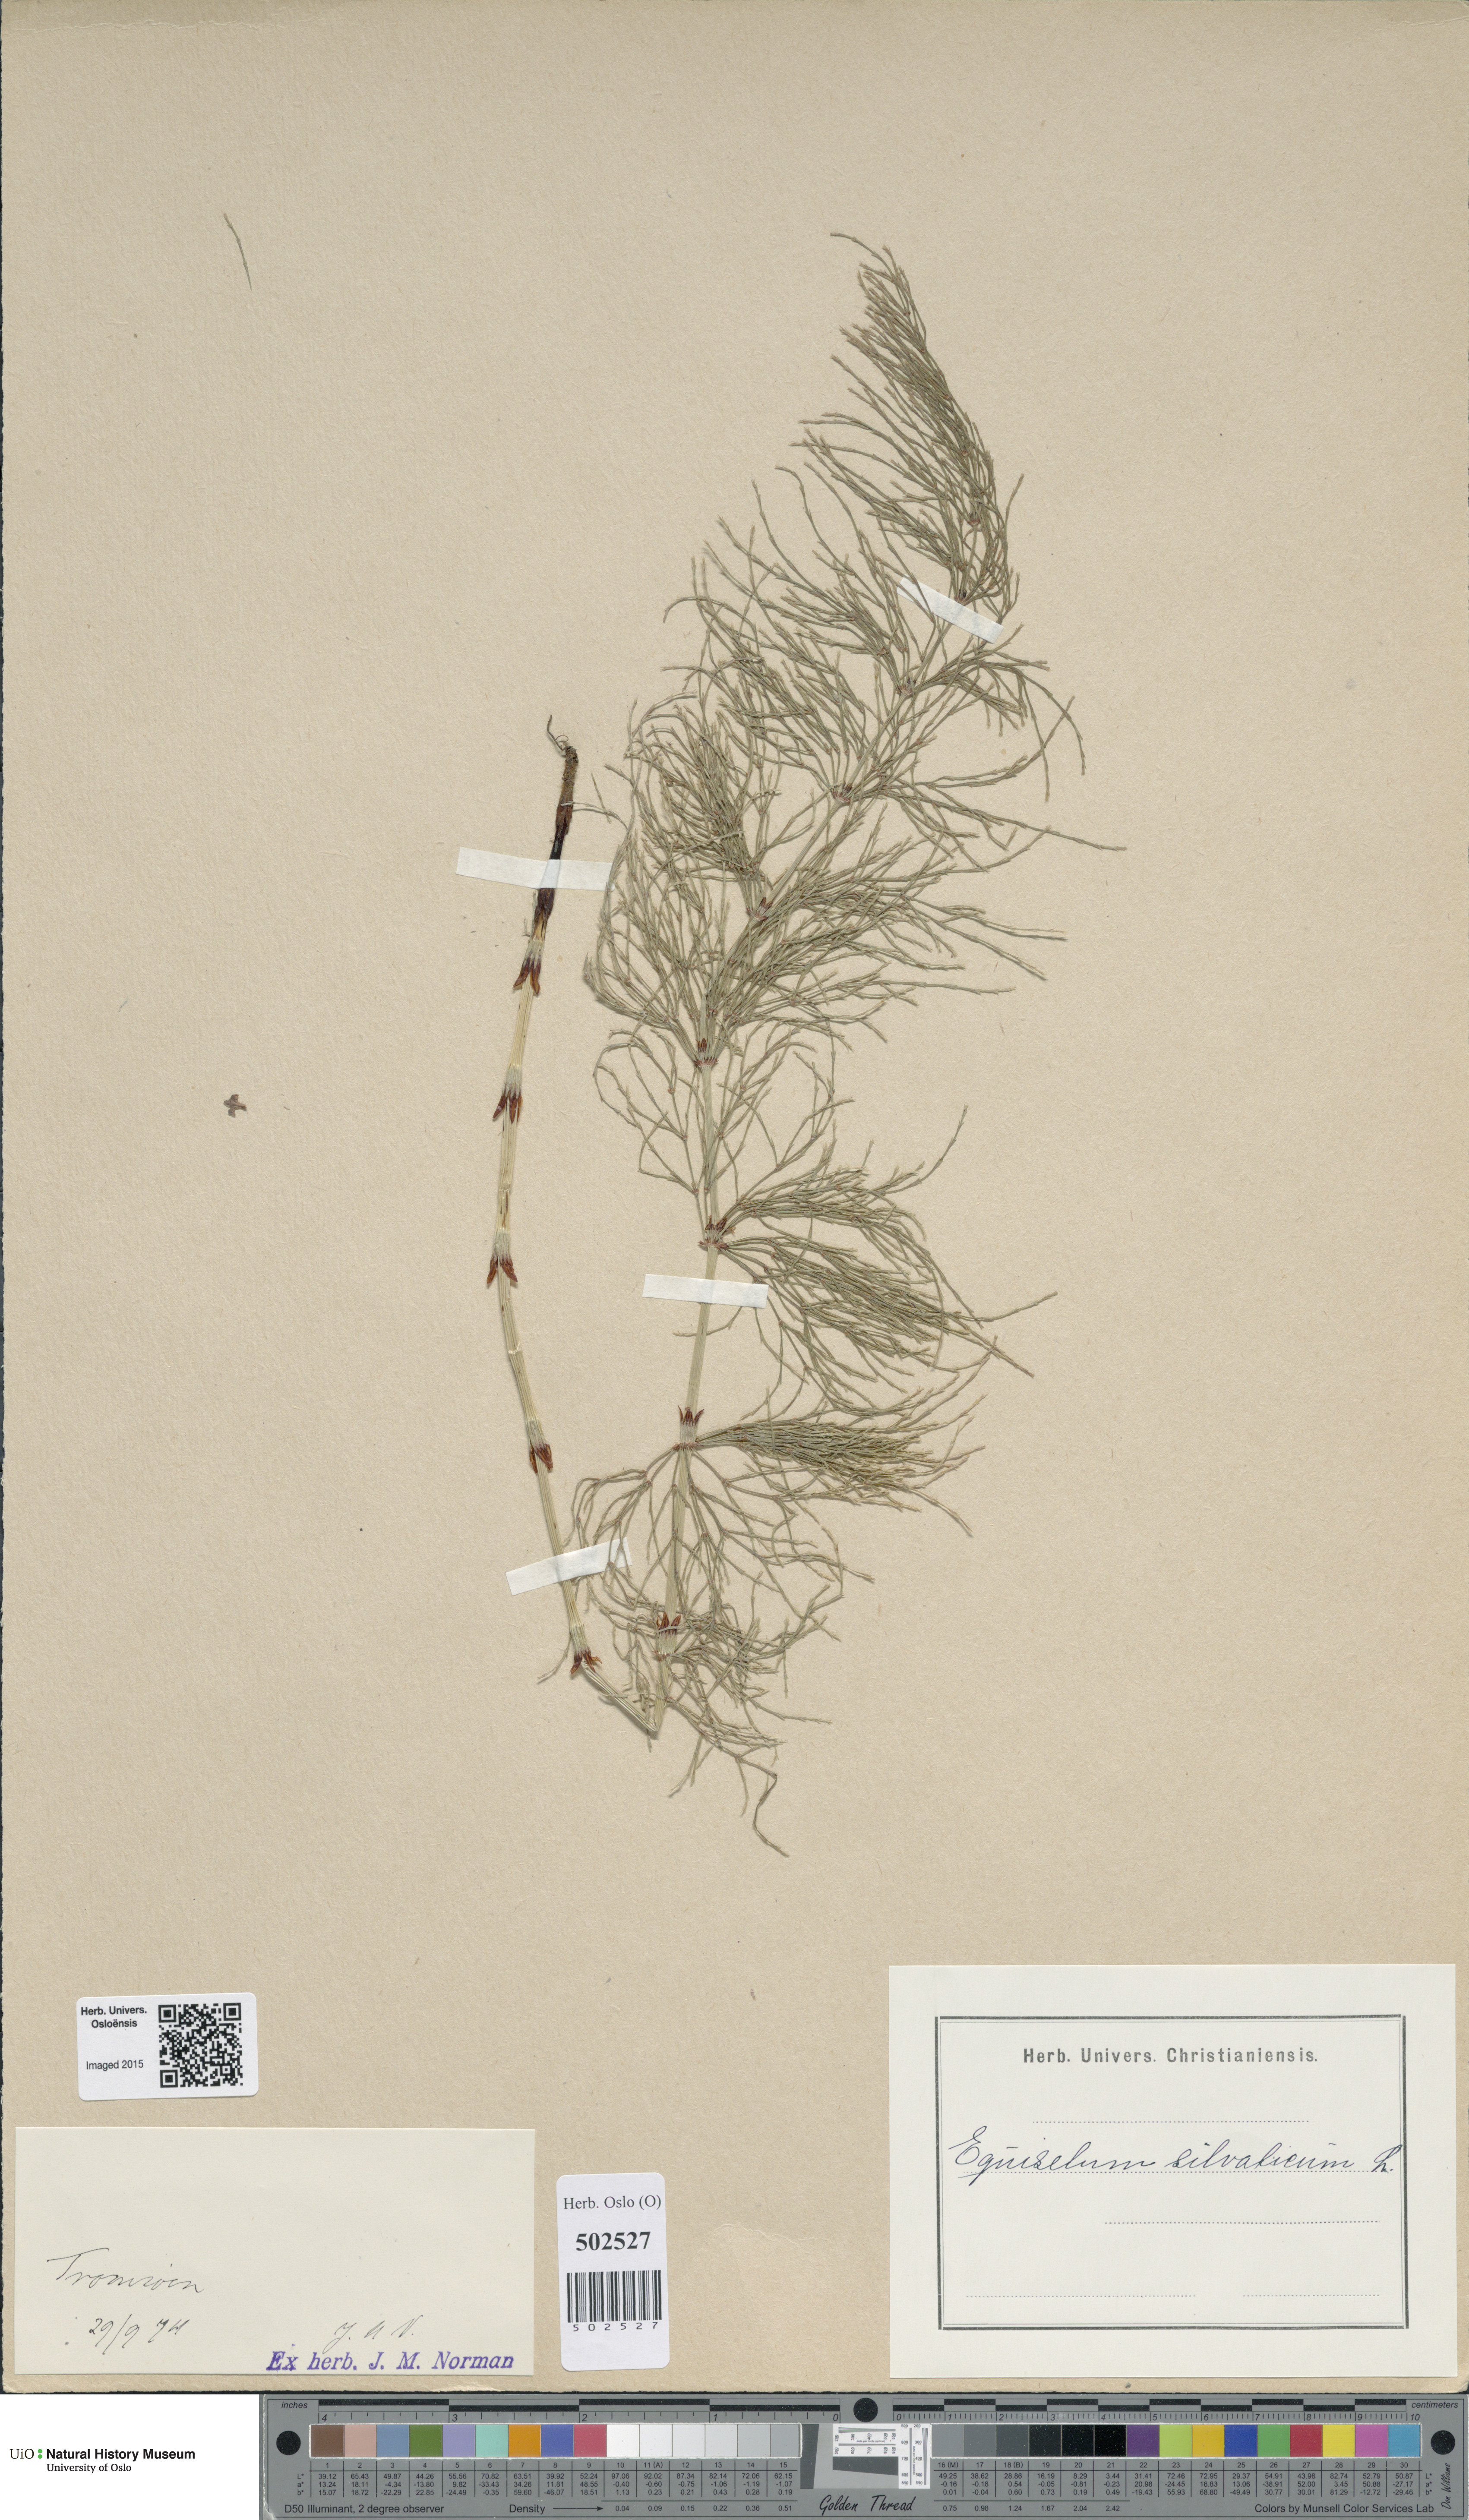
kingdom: Plantae
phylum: Tracheophyta
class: Polypodiopsida
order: Equisetales
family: Equisetaceae
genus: Equisetum
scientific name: Equisetum sylvaticum
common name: Wood horsetail
